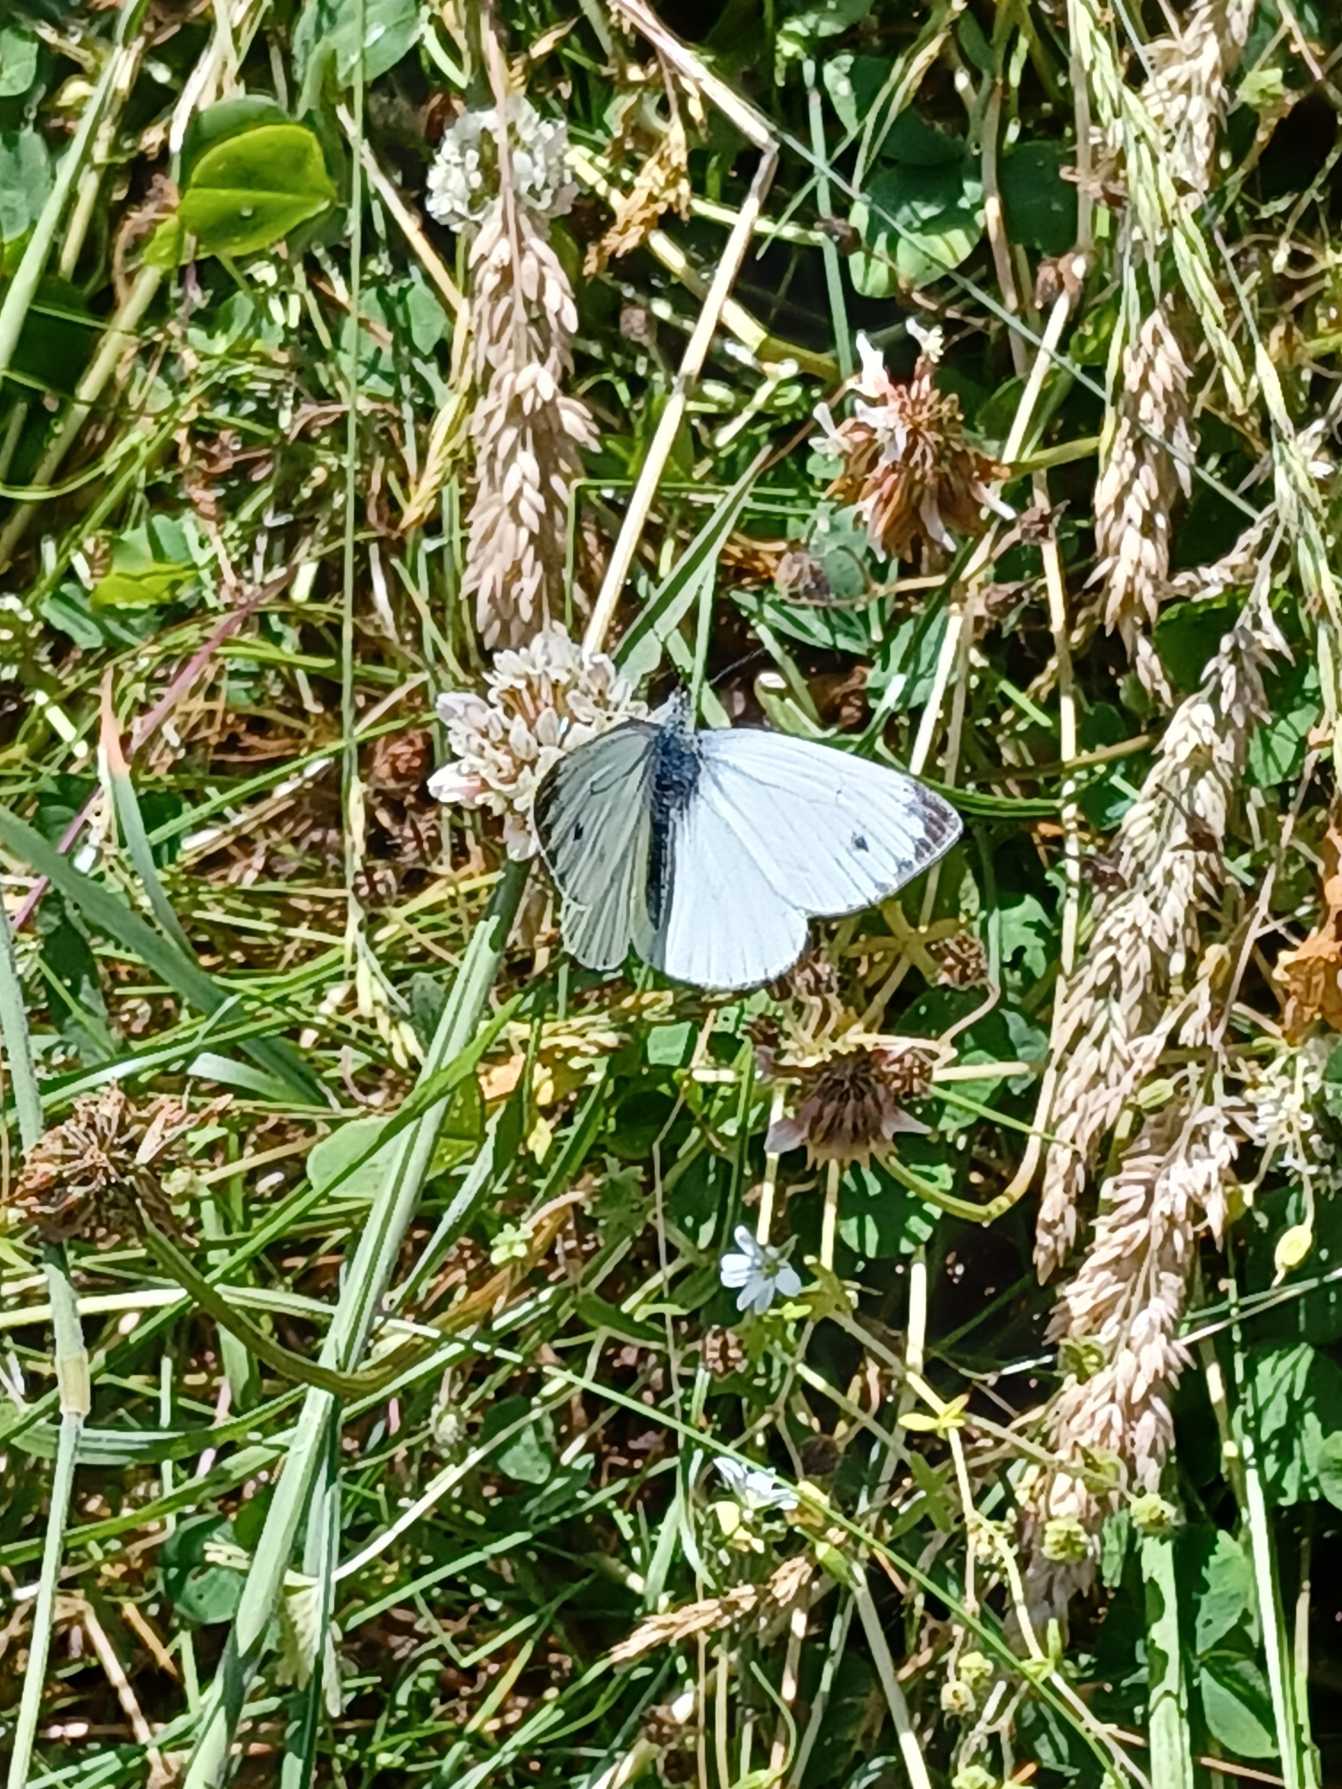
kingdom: Animalia
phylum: Arthropoda
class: Insecta
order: Lepidoptera
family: Pieridae
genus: Pieris
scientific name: Pieris napi
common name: Grønåret kålsommerfugl
